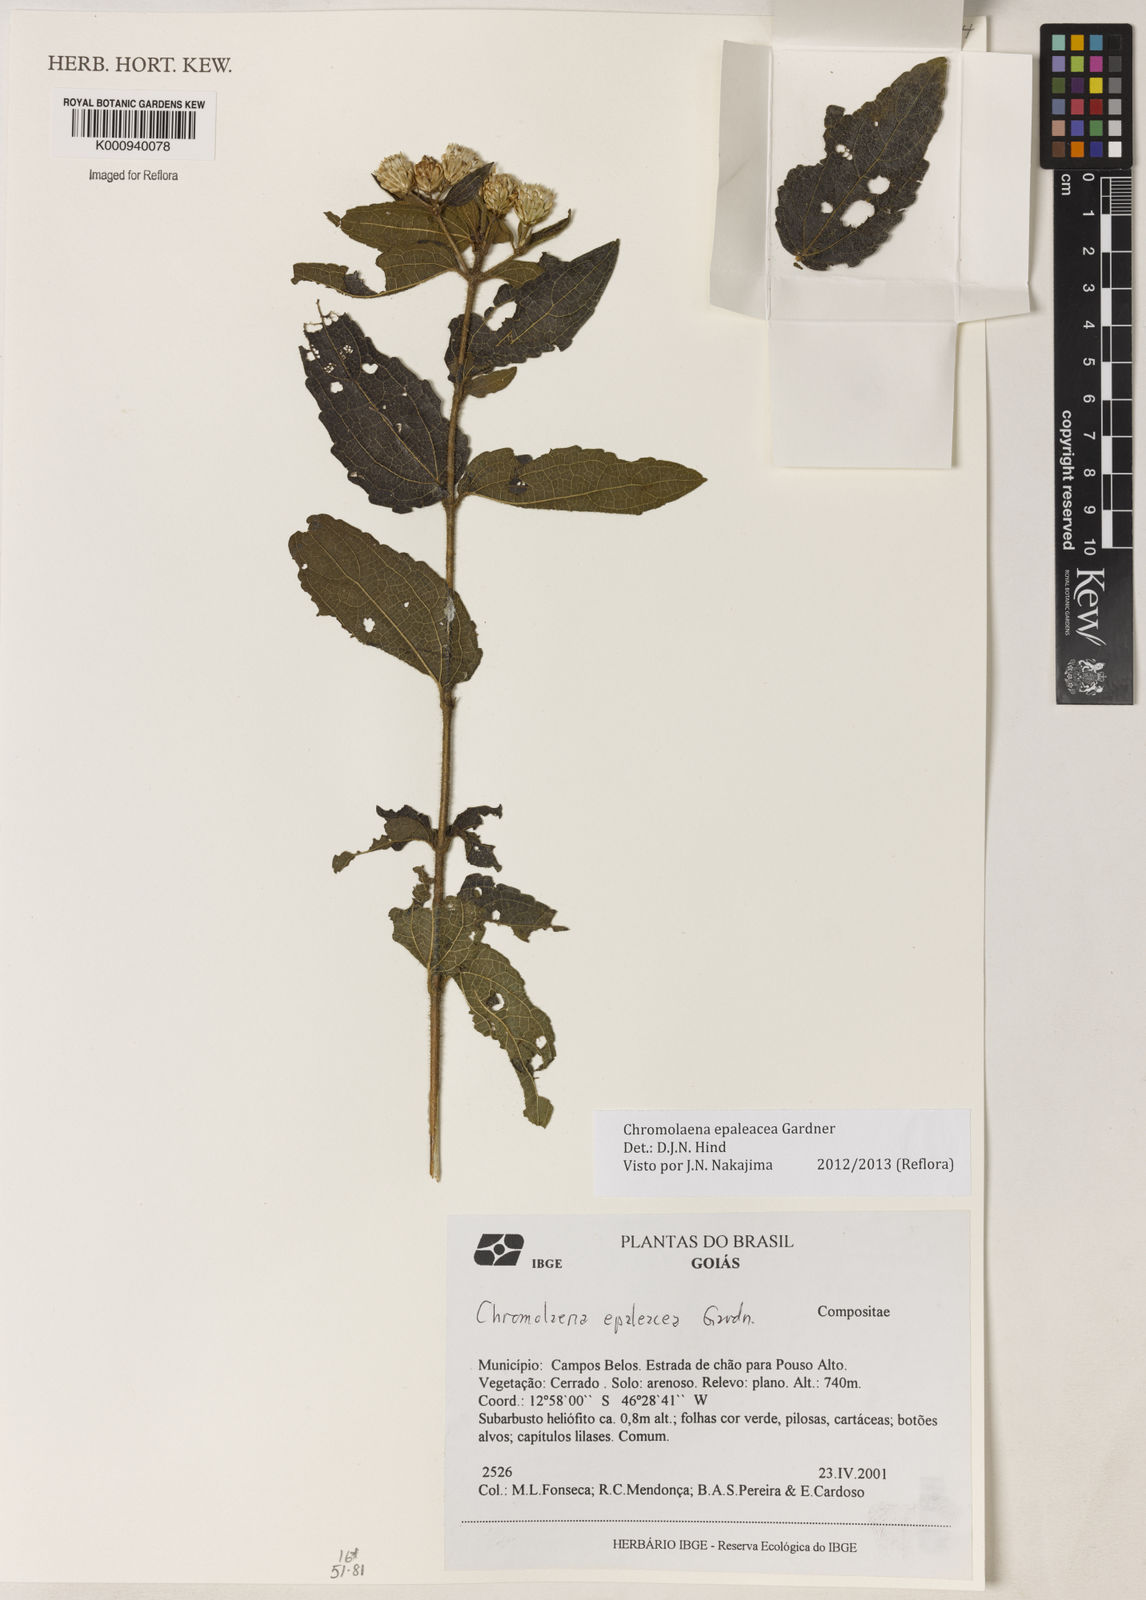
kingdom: Plantae
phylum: Tracheophyta
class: Magnoliopsida
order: Asterales
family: Asteraceae
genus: Chromolaena
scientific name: Chromolaena epaleacea
